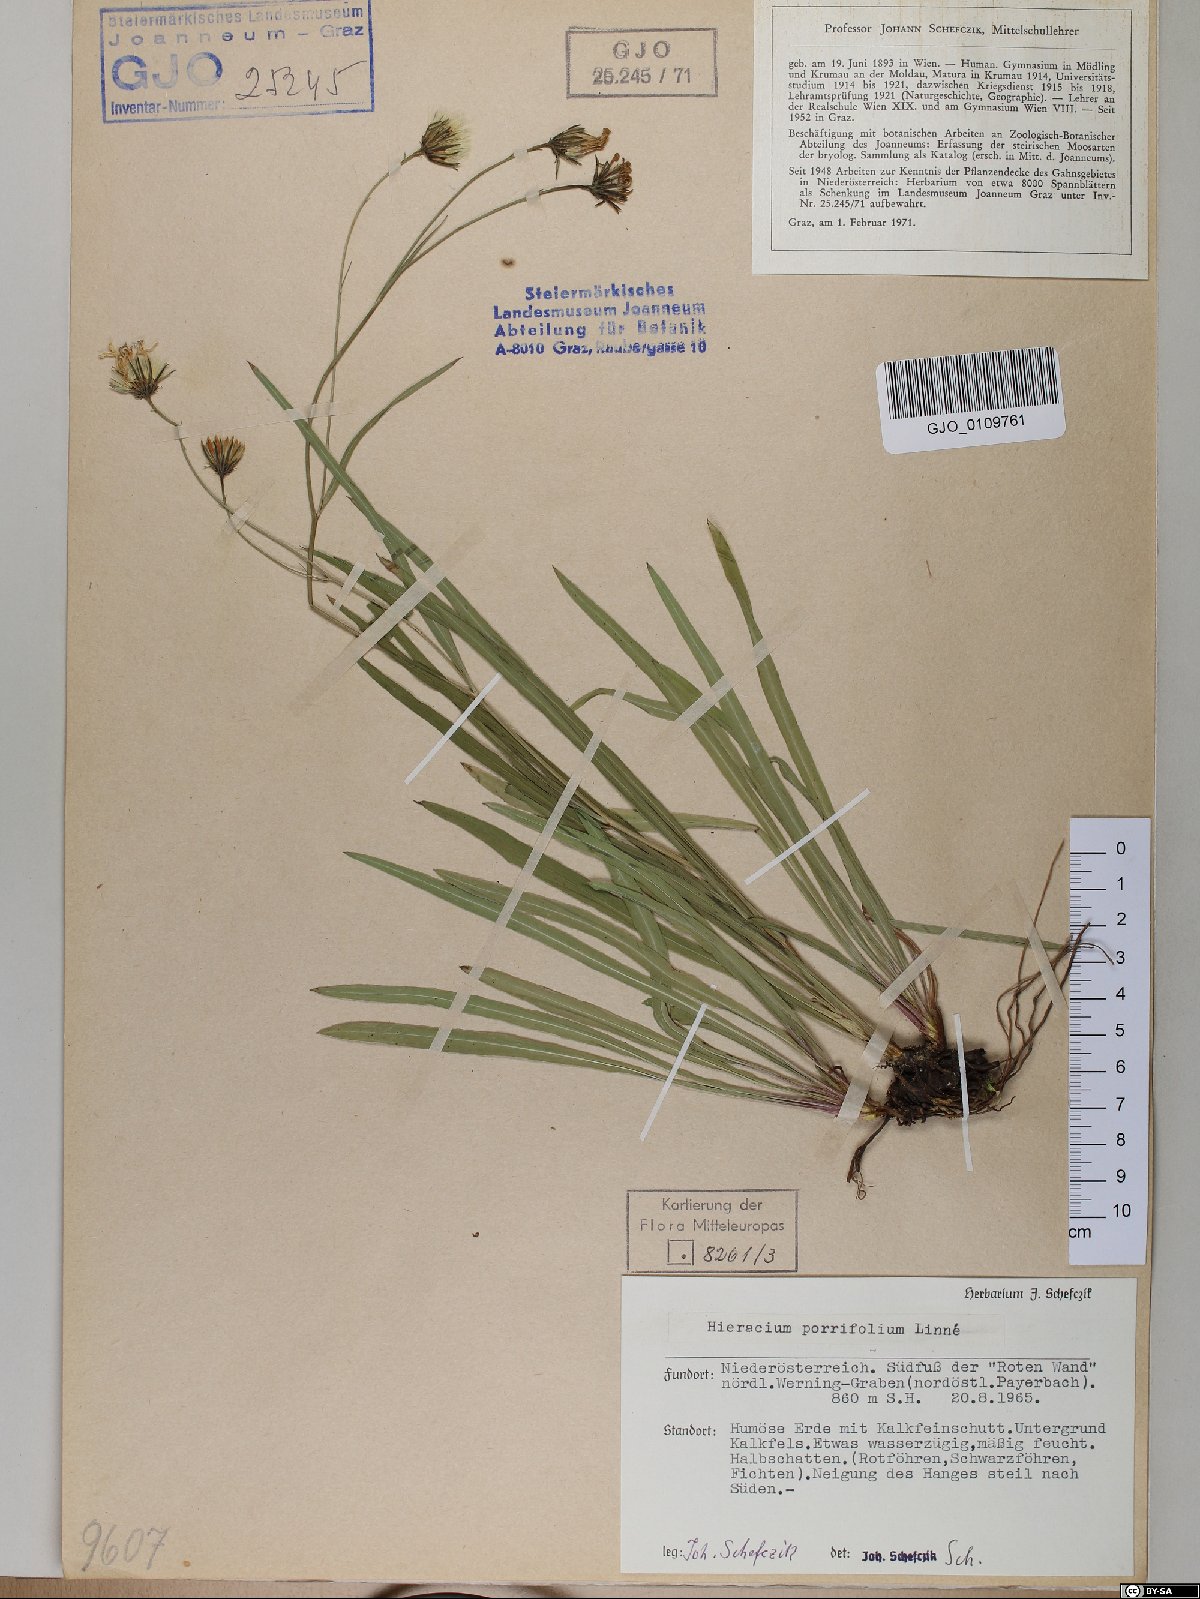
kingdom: Plantae
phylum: Tracheophyta
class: Magnoliopsida
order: Asterales
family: Asteraceae
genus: Hieracium
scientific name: Hieracium porrifolium
